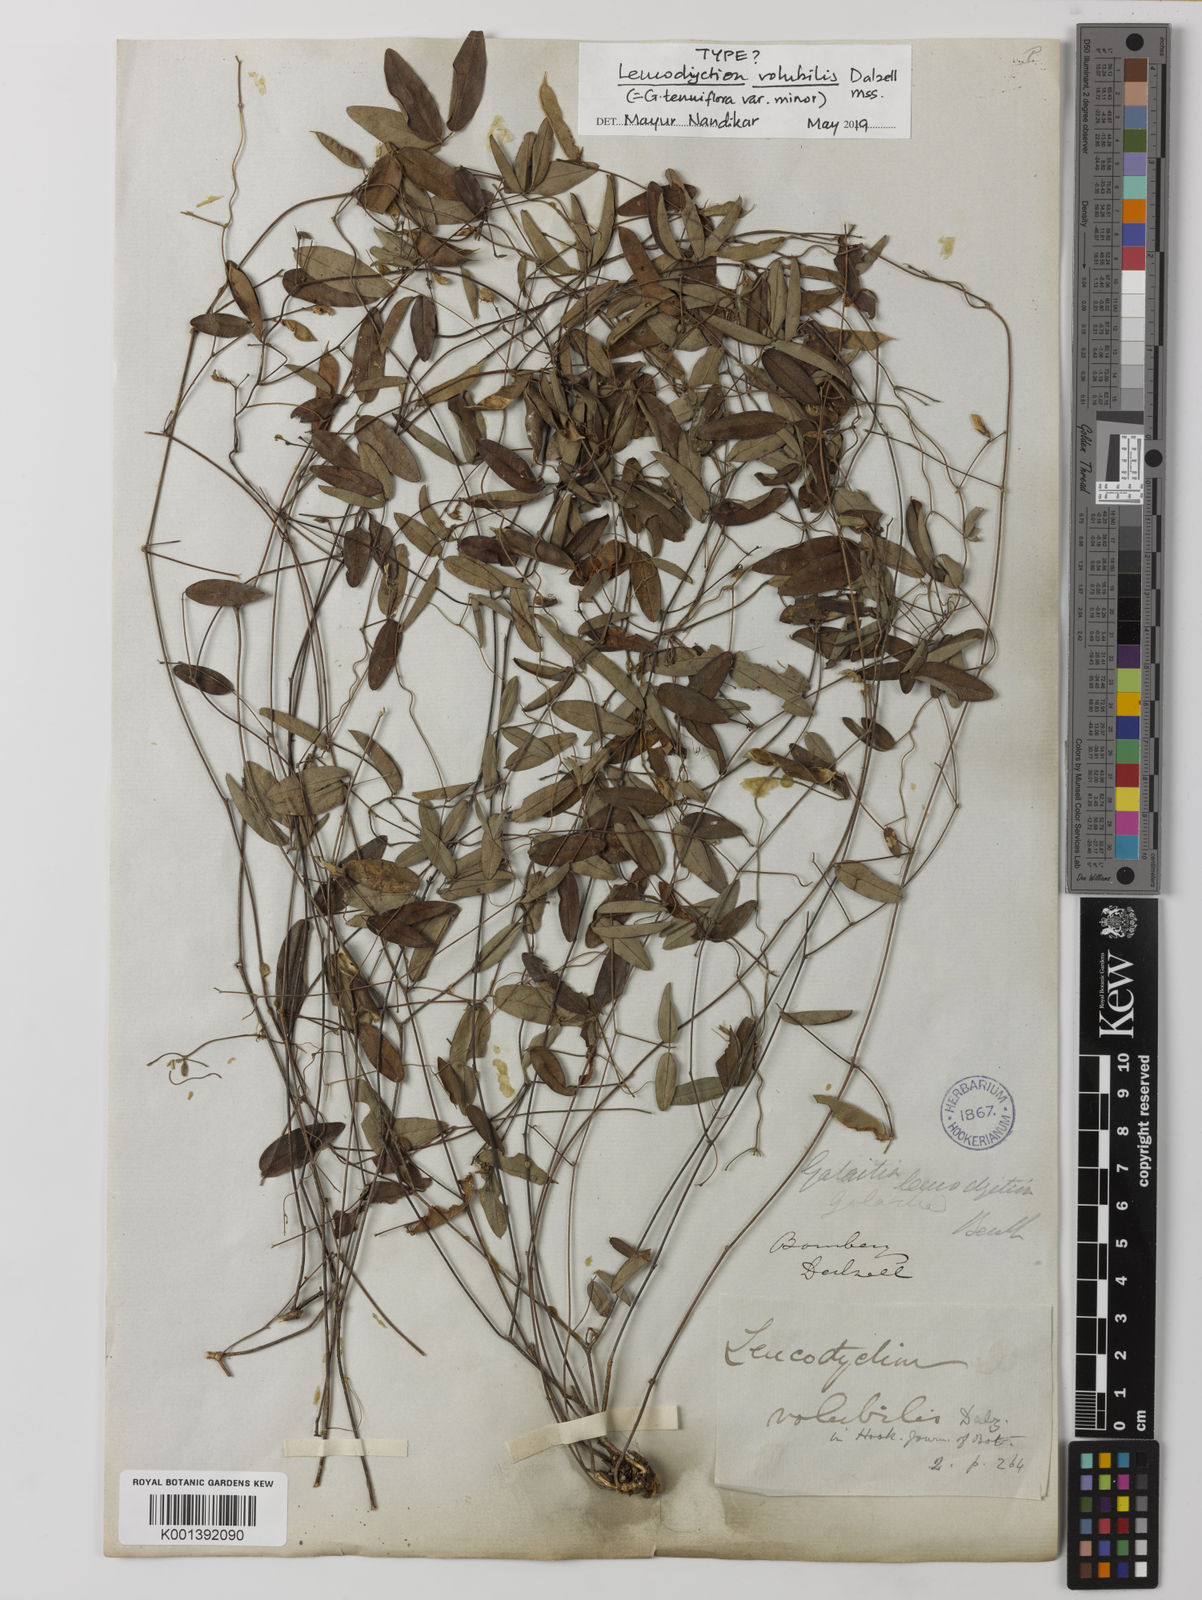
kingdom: Plantae
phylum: Tracheophyta
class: Magnoliopsida
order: Fabales
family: Fabaceae
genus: Galactia
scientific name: Galactia
